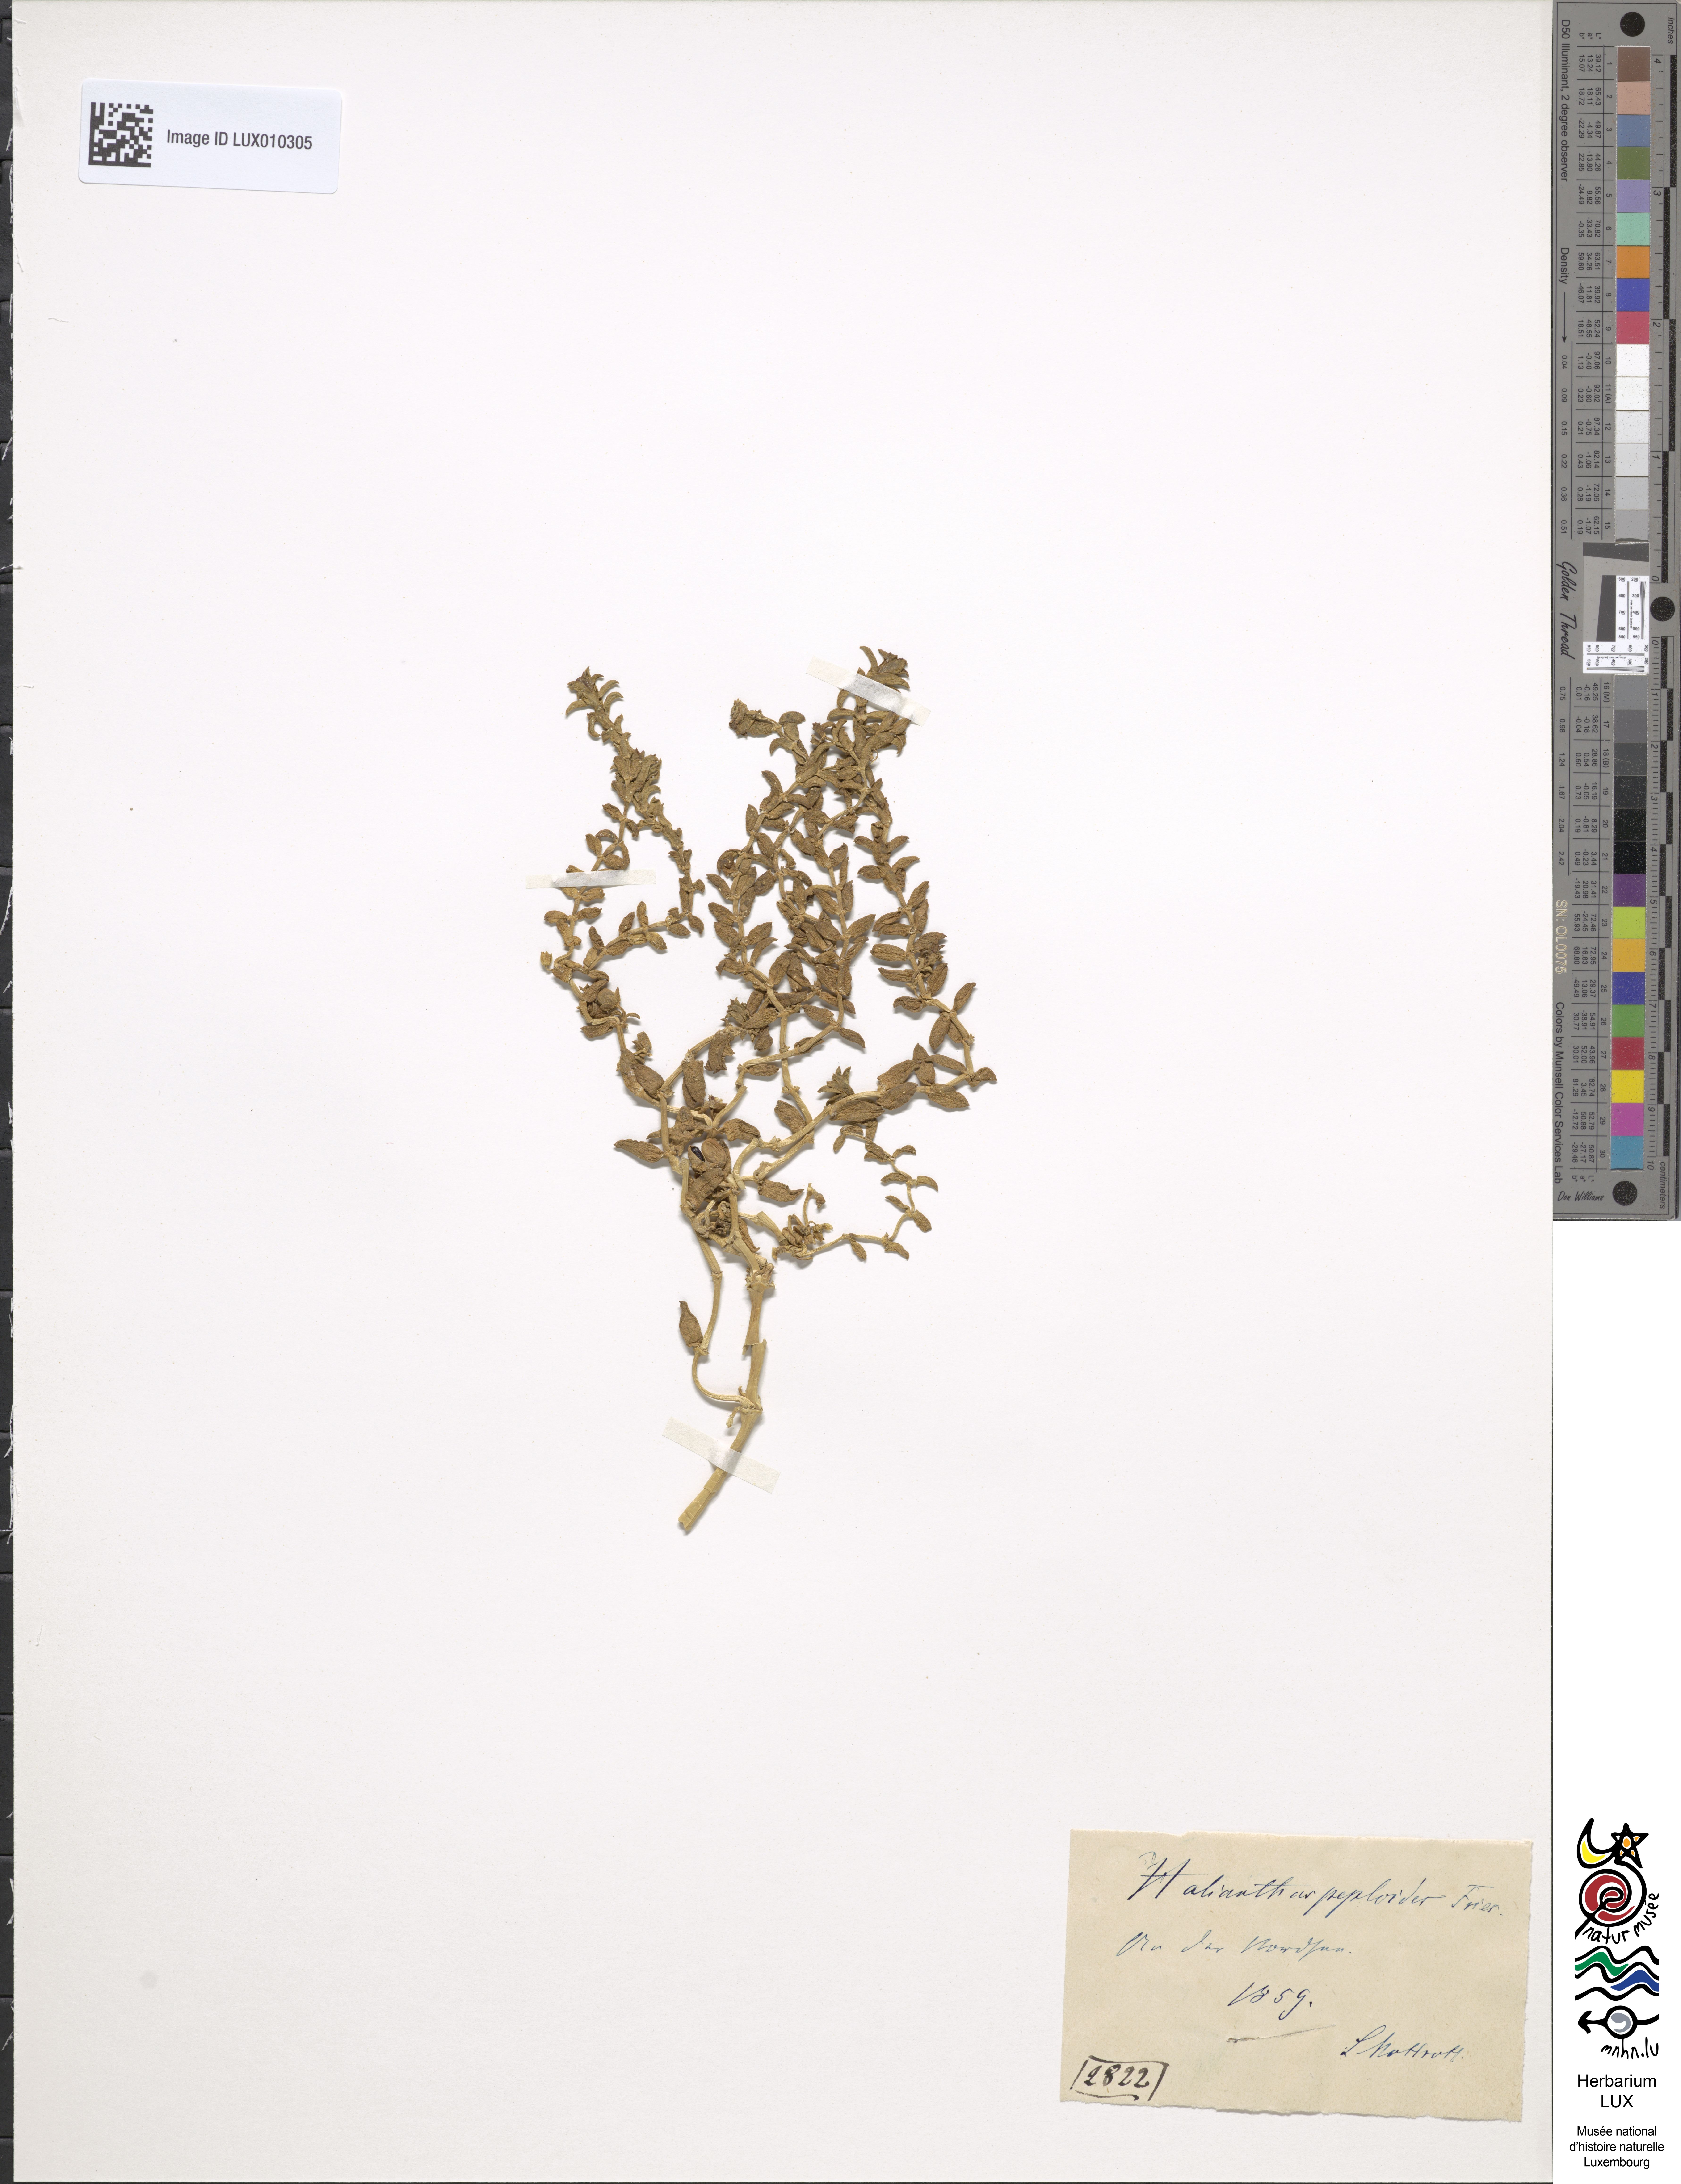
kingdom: Plantae
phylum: Tracheophyta
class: Magnoliopsida
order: Caryophyllales
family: Caryophyllaceae
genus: Honckenya
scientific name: Honckenya peploides
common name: Sea sandwort
